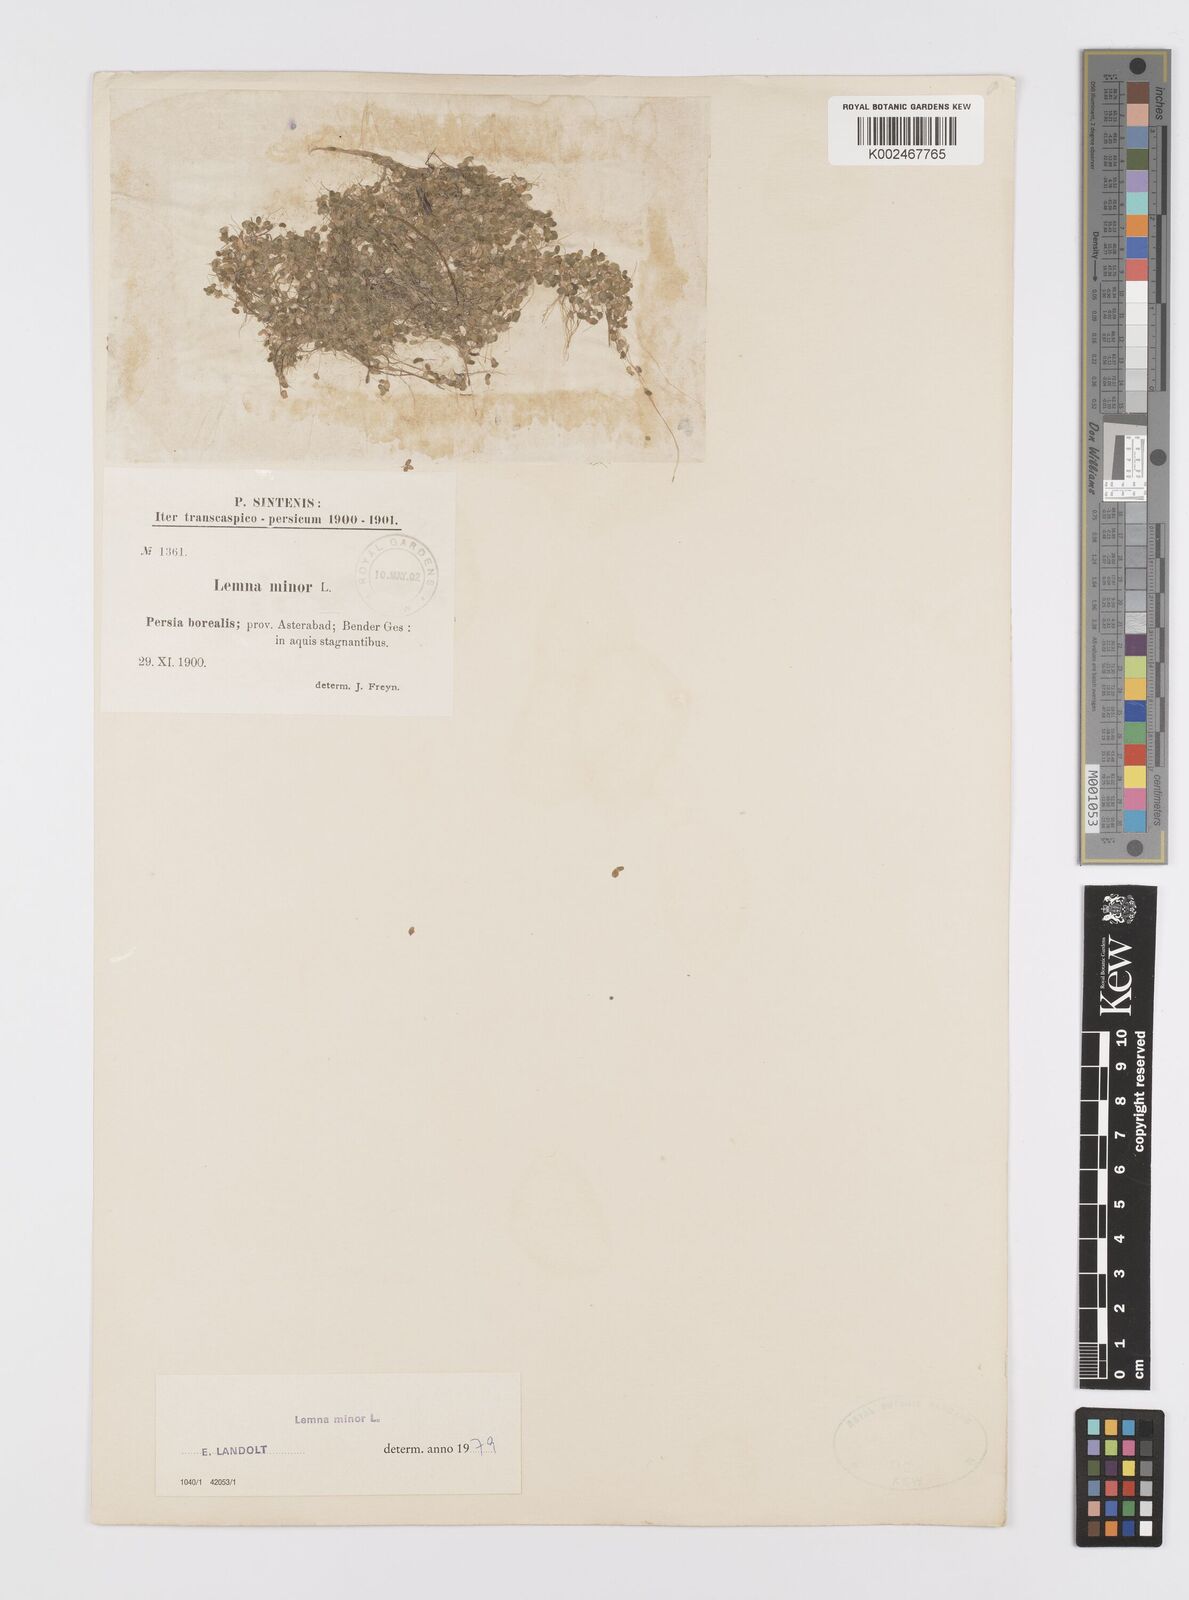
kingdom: Plantae
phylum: Tracheophyta
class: Liliopsida
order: Alismatales
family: Araceae
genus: Lemna
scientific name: Lemna minor
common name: Common duckweed
